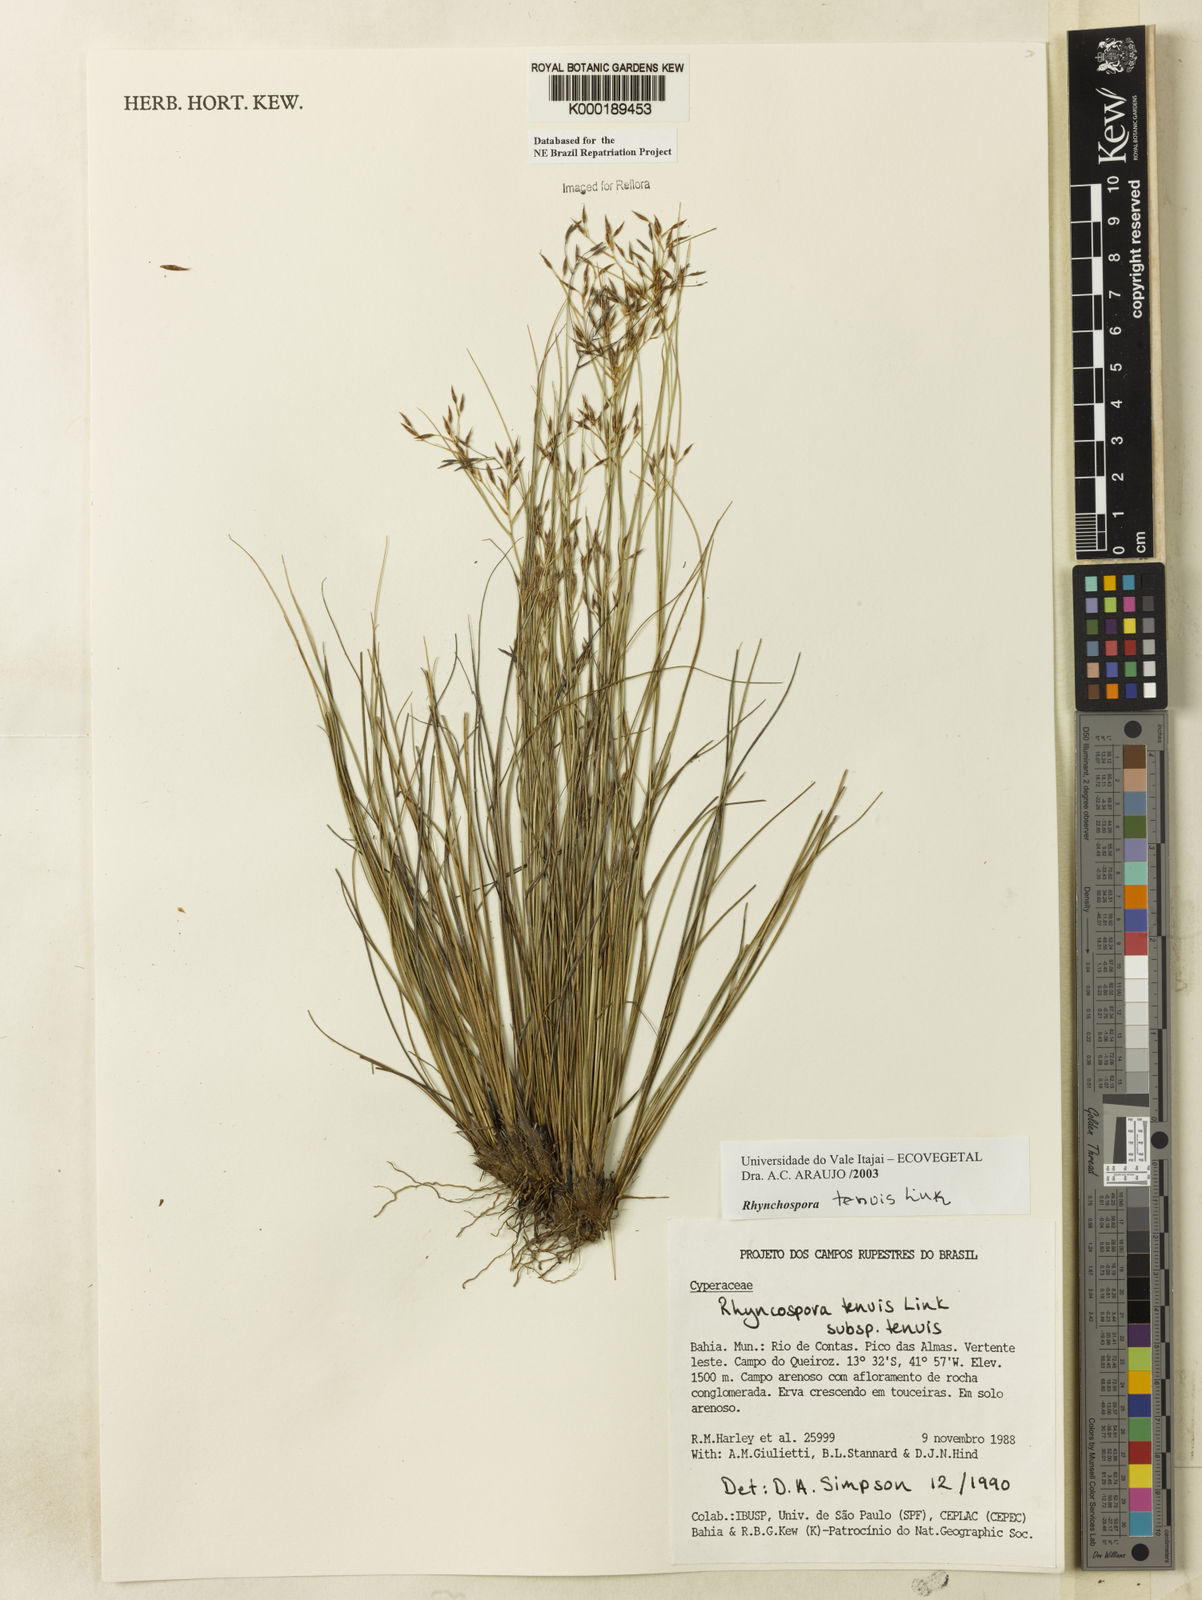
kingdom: Plantae
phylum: Tracheophyta
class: Liliopsida
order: Poales
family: Cyperaceae
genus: Rhynchospora
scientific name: Rhynchospora tenuis
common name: Quill beaksedge
